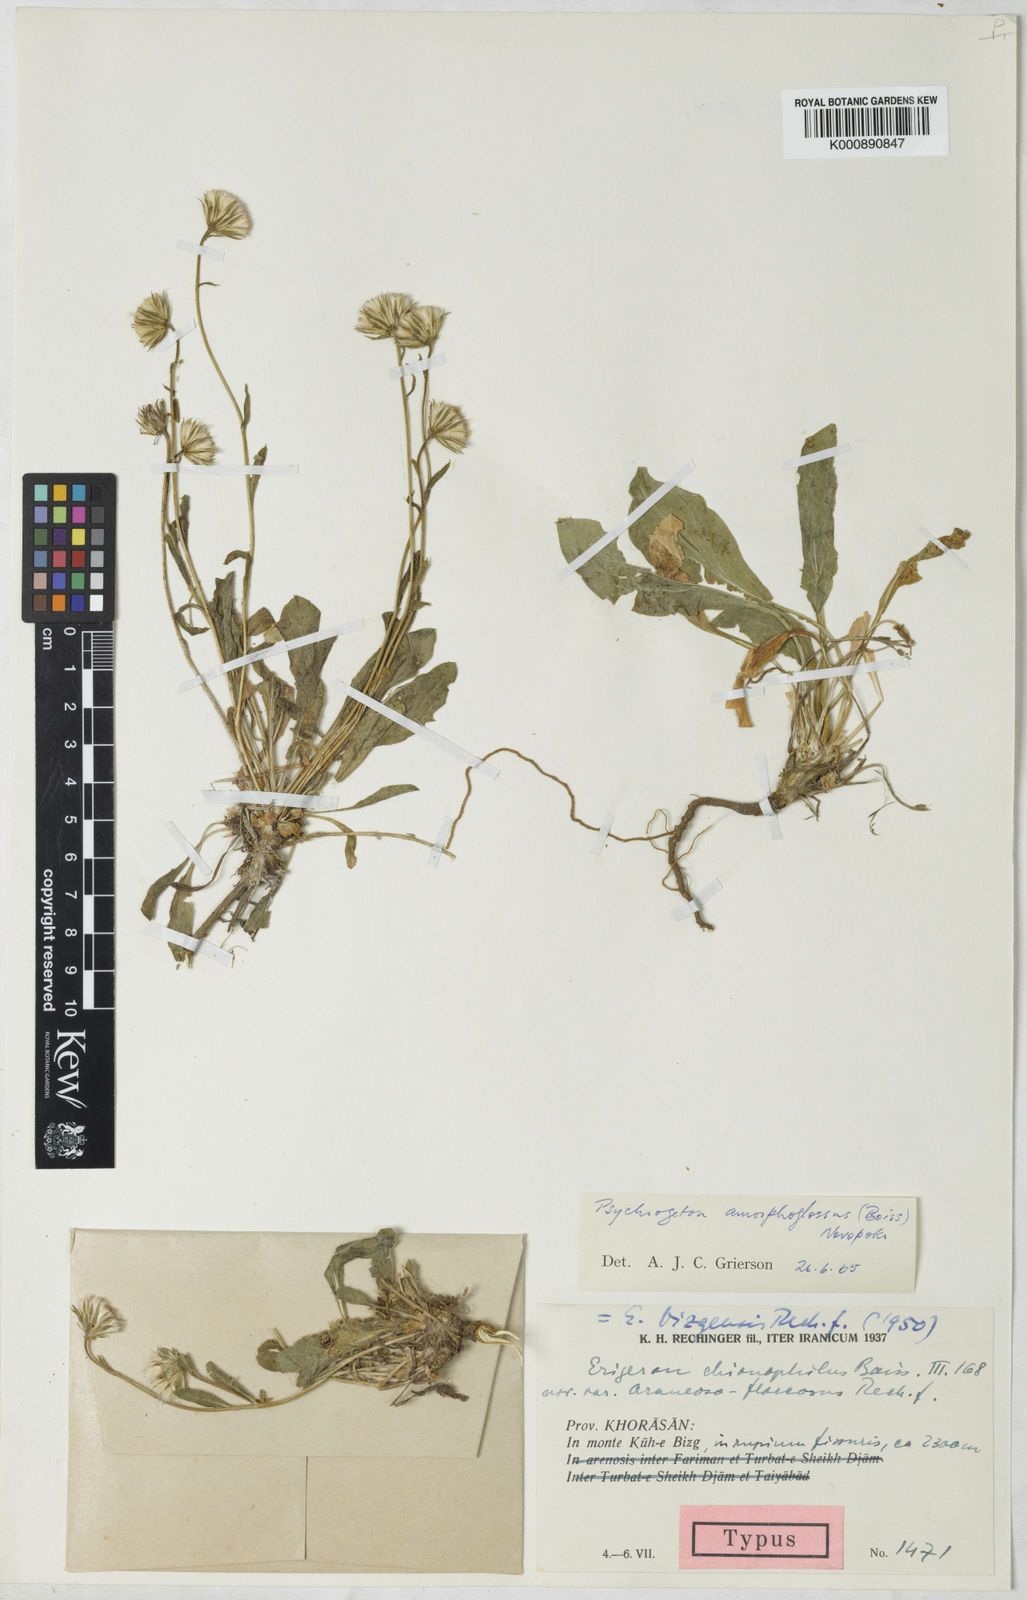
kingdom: Plantae
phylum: Tracheophyta
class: Magnoliopsida
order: Asterales
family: Asteraceae
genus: Psychrogeton
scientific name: Psychrogeton amorphoglossus
